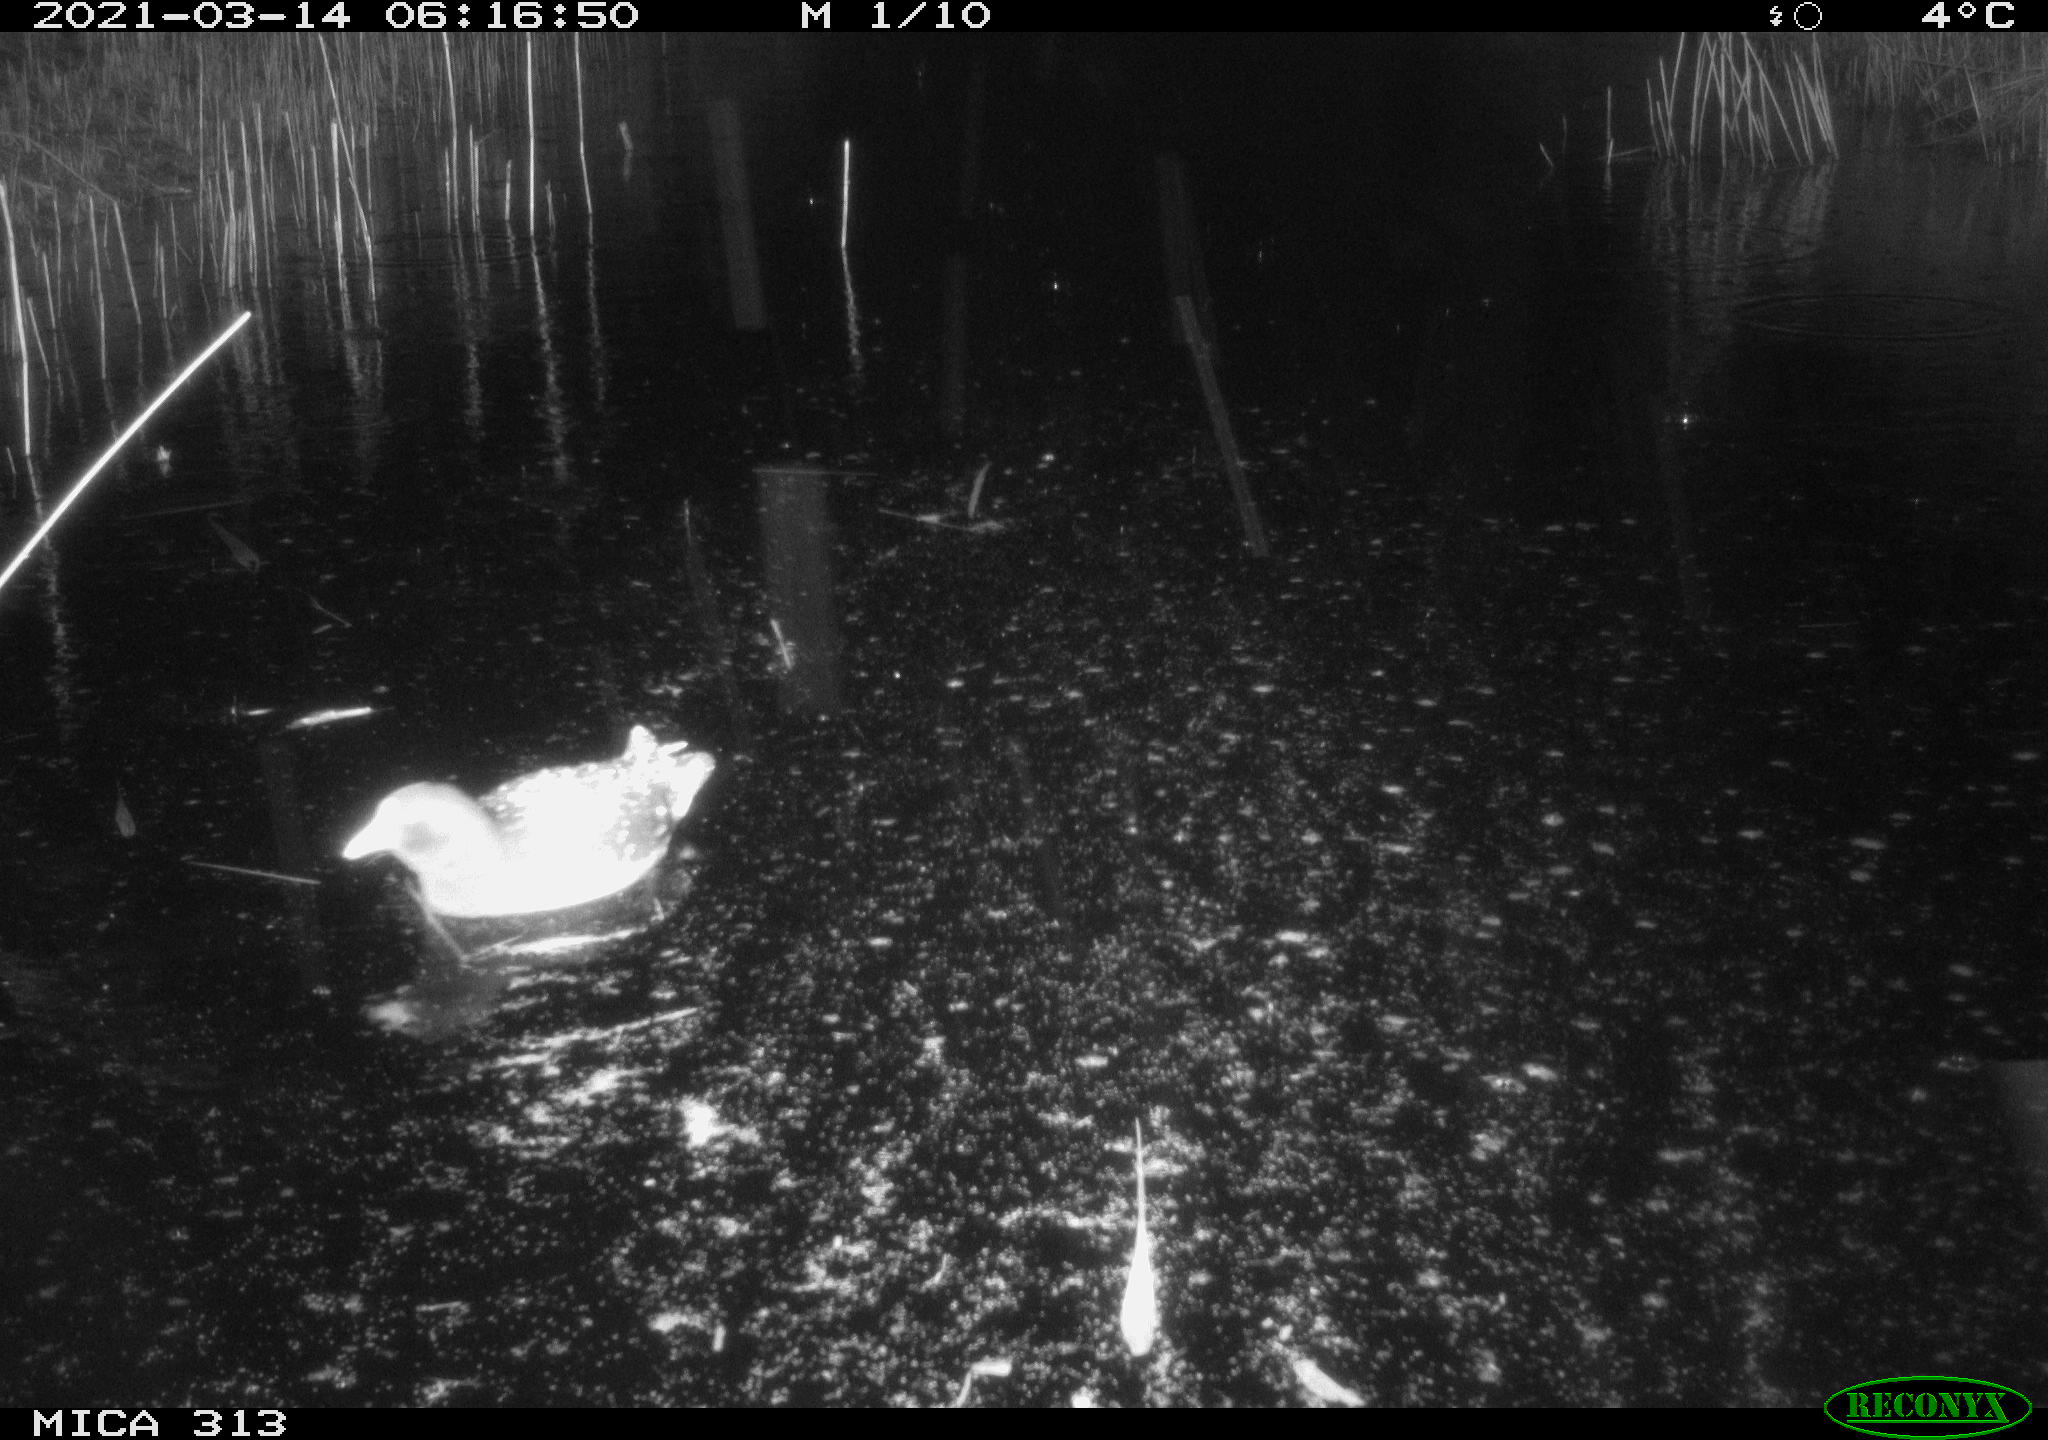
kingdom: Animalia
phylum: Chordata
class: Aves
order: Gruiformes
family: Rallidae
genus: Gallinula
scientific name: Gallinula chloropus
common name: Common moorhen
